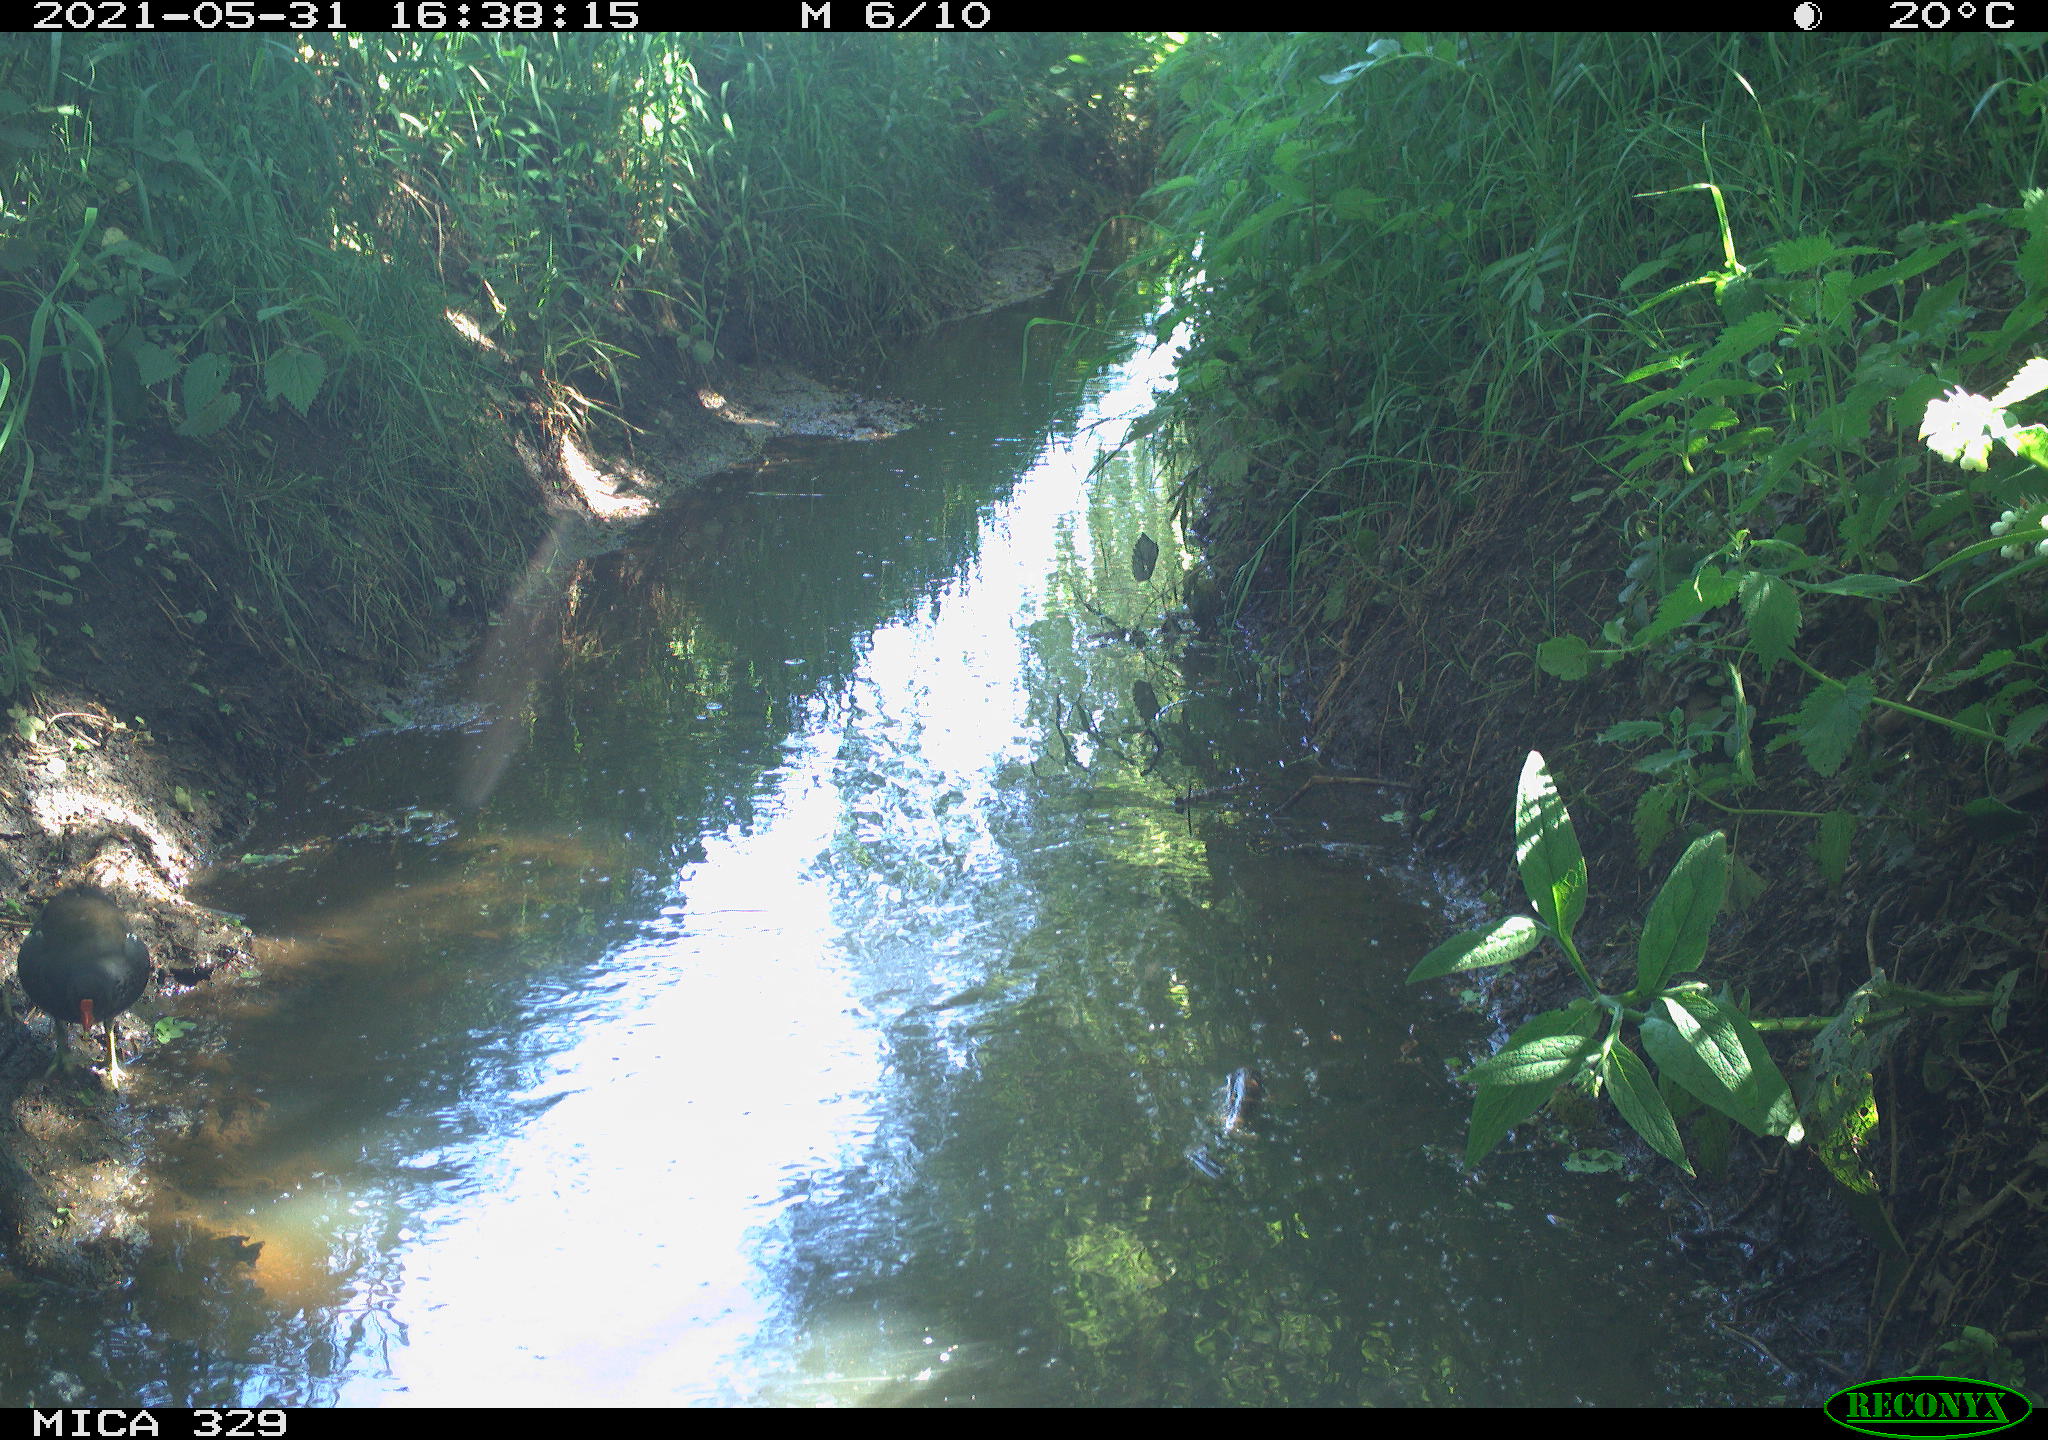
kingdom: Animalia
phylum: Chordata
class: Aves
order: Gruiformes
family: Rallidae
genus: Gallinula
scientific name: Gallinula chloropus
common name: Common moorhen
